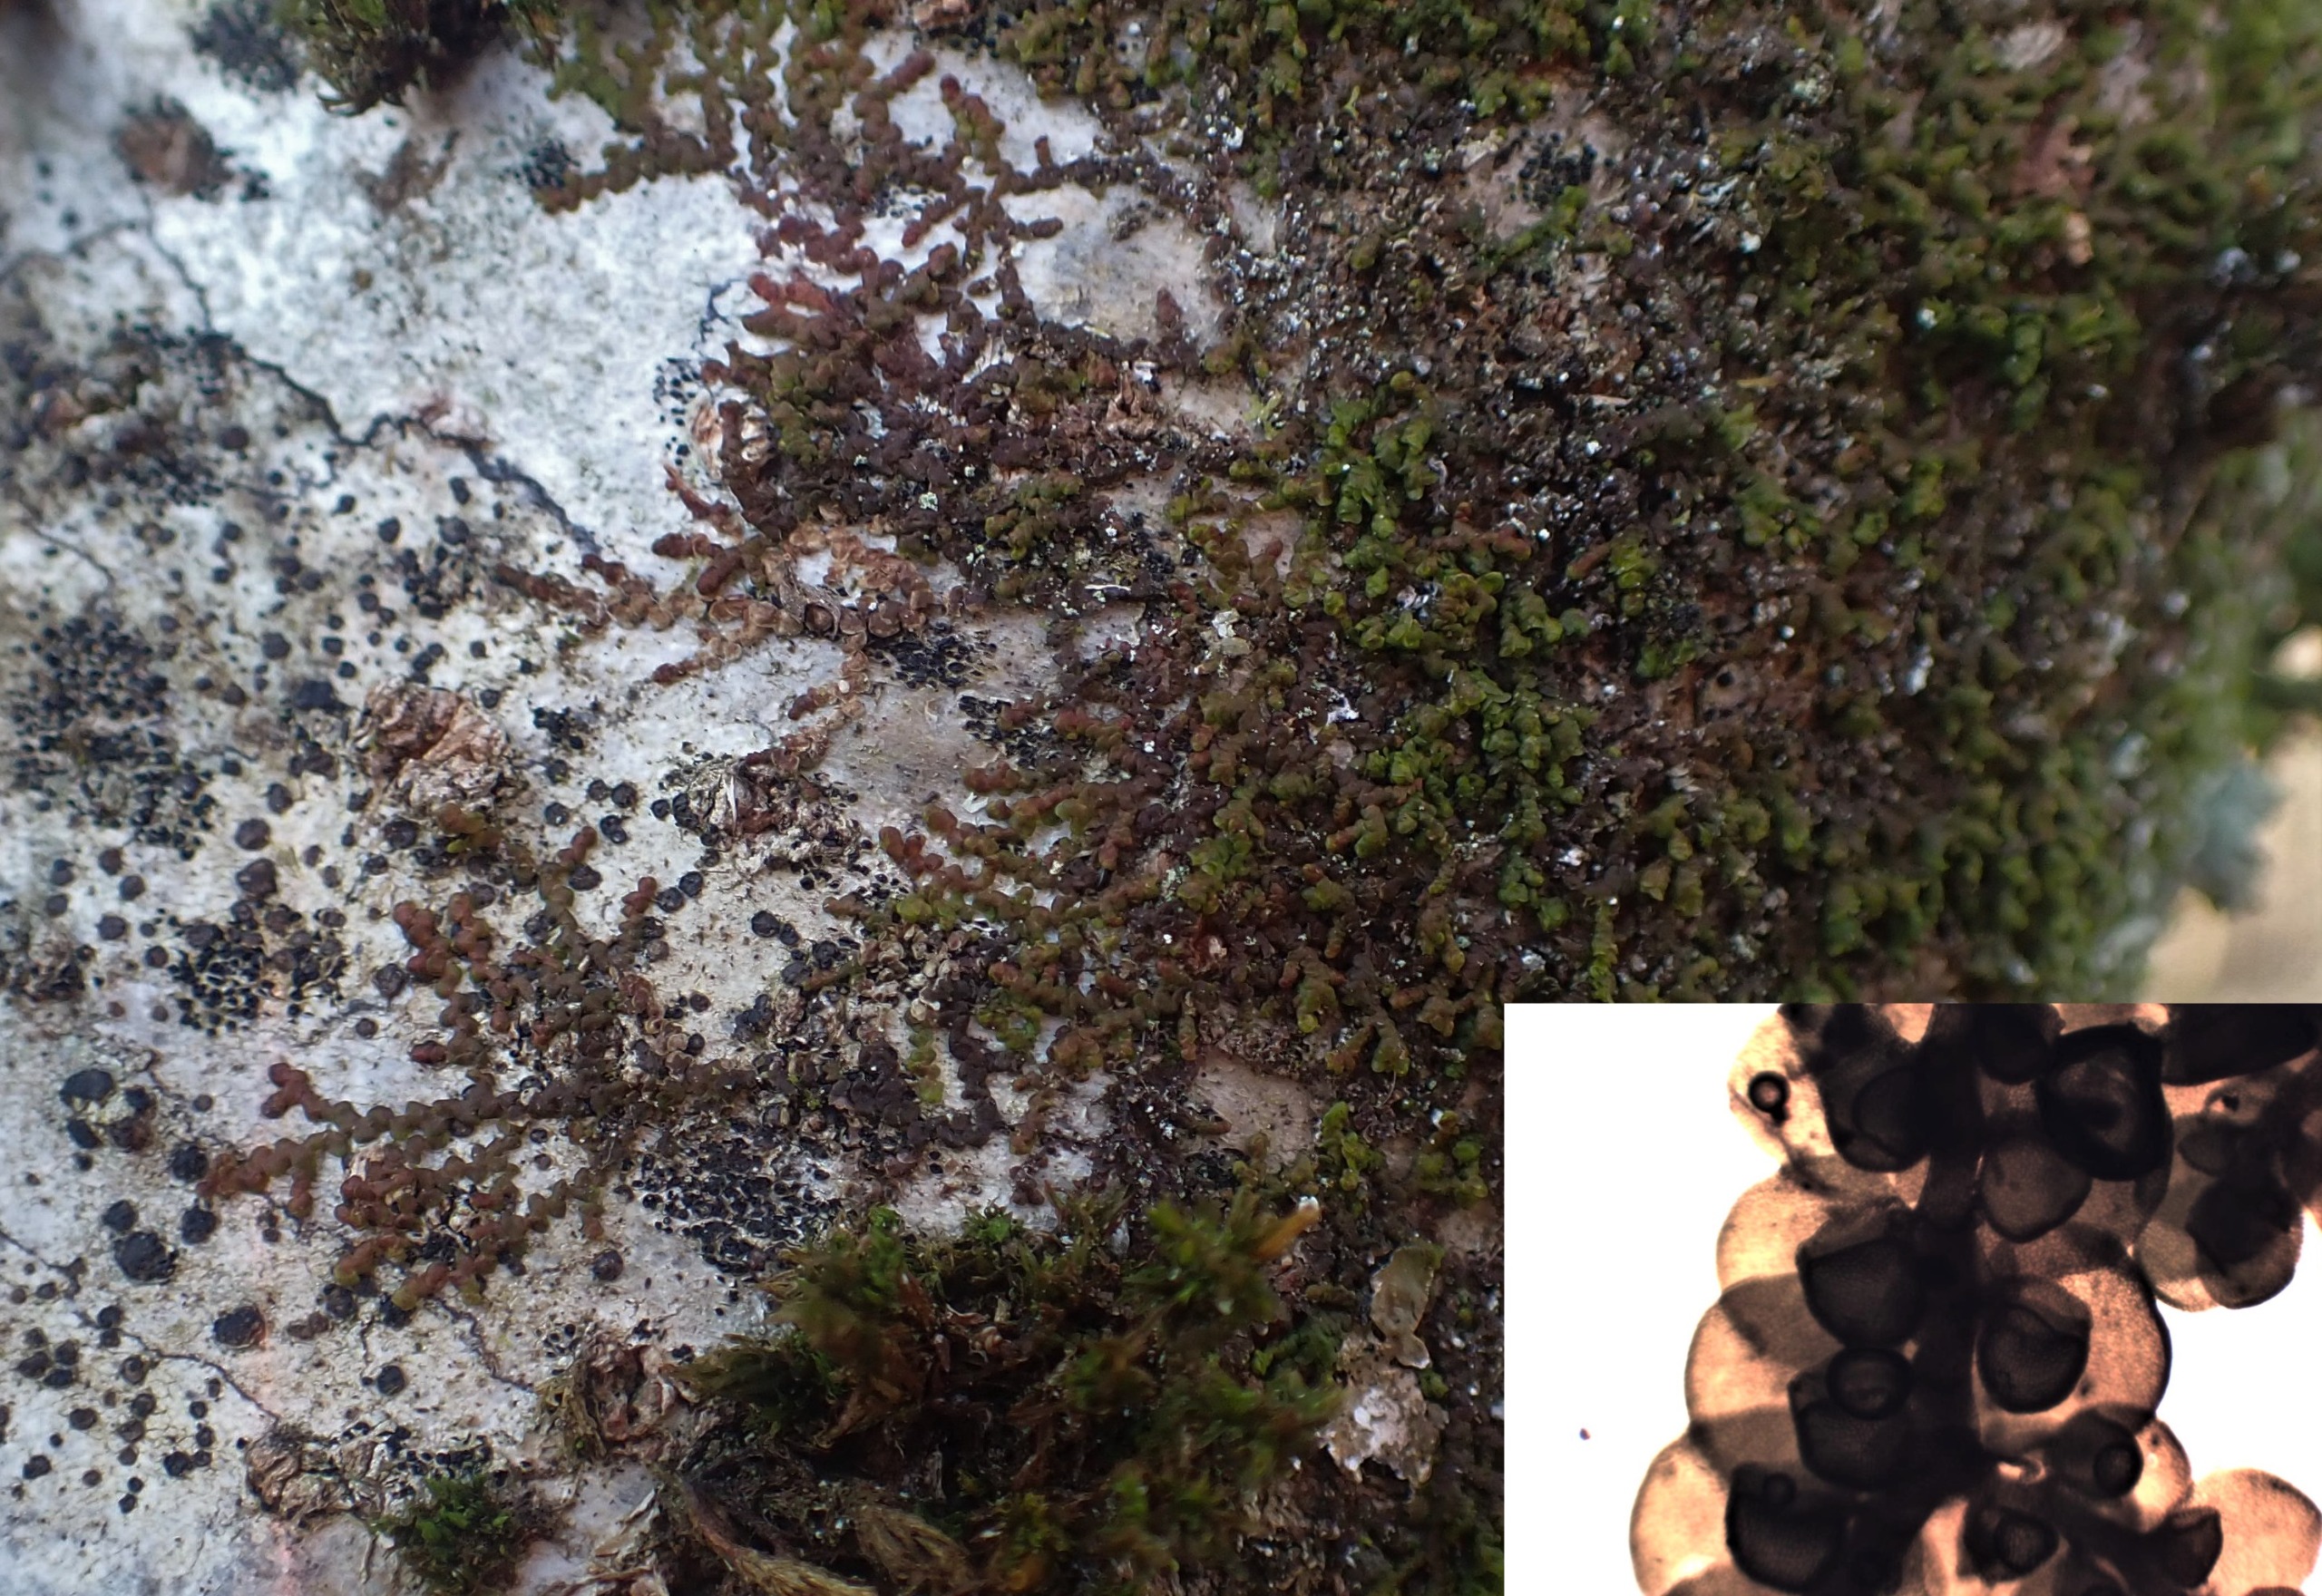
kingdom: Plantae
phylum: Marchantiophyta
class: Jungermanniopsida
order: Porellales
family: Frullaniaceae
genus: Frullania
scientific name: Frullania dilatata
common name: Mat bronzemos
